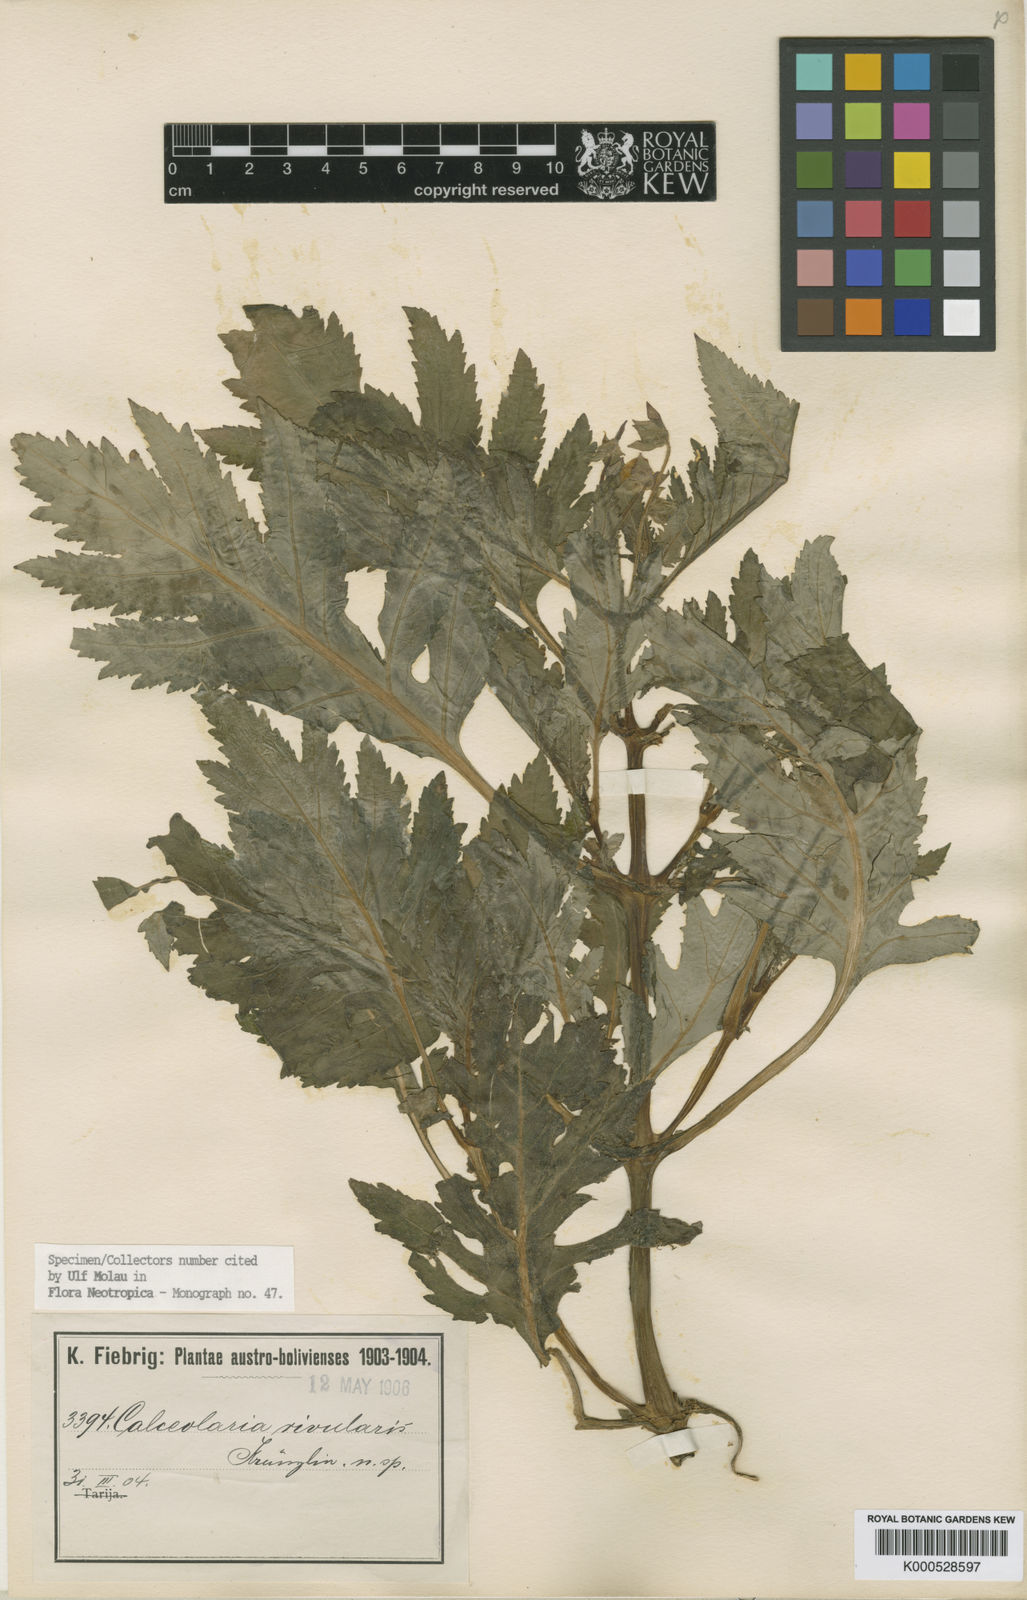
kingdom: Plantae
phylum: Tracheophyta
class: Magnoliopsida
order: Lamiales
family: Calceolariaceae
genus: Calceolaria
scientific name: Calceolaria rivularis
